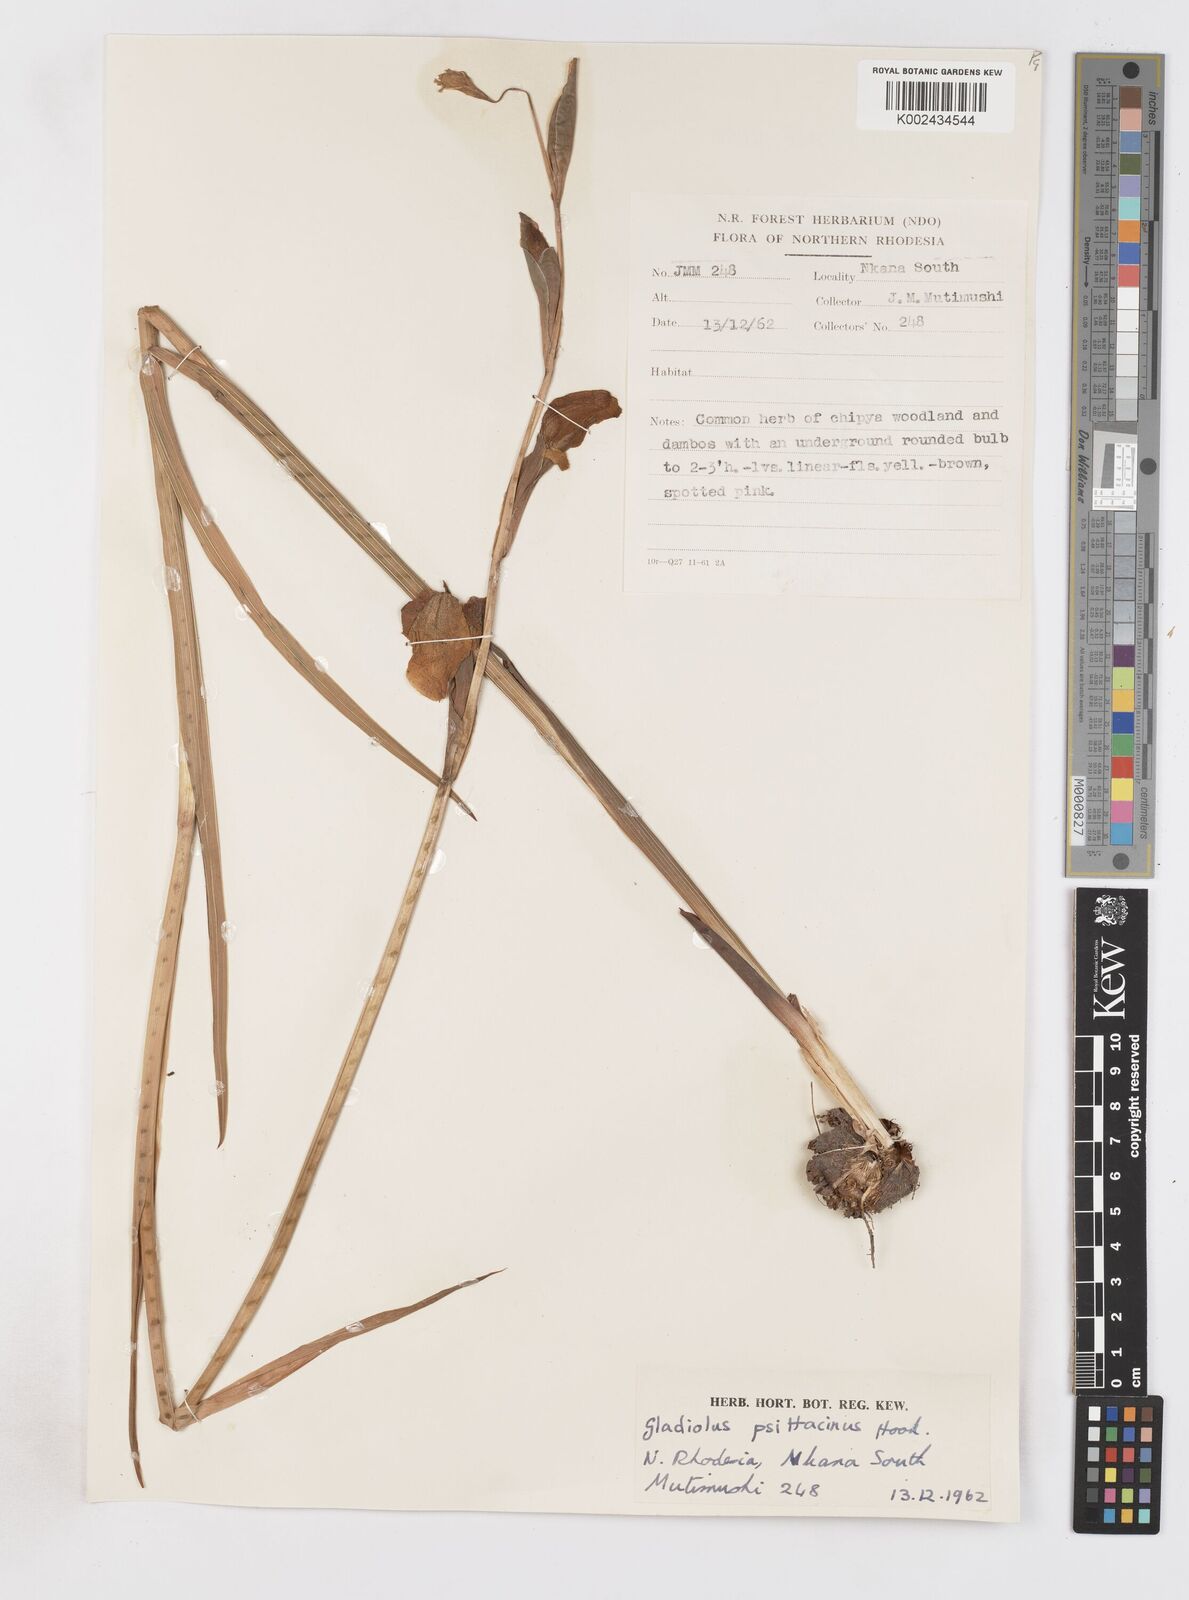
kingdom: Plantae
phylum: Tracheophyta
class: Liliopsida
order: Asparagales
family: Iridaceae
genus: Gladiolus
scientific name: Gladiolus dalenii
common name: Cornflag
